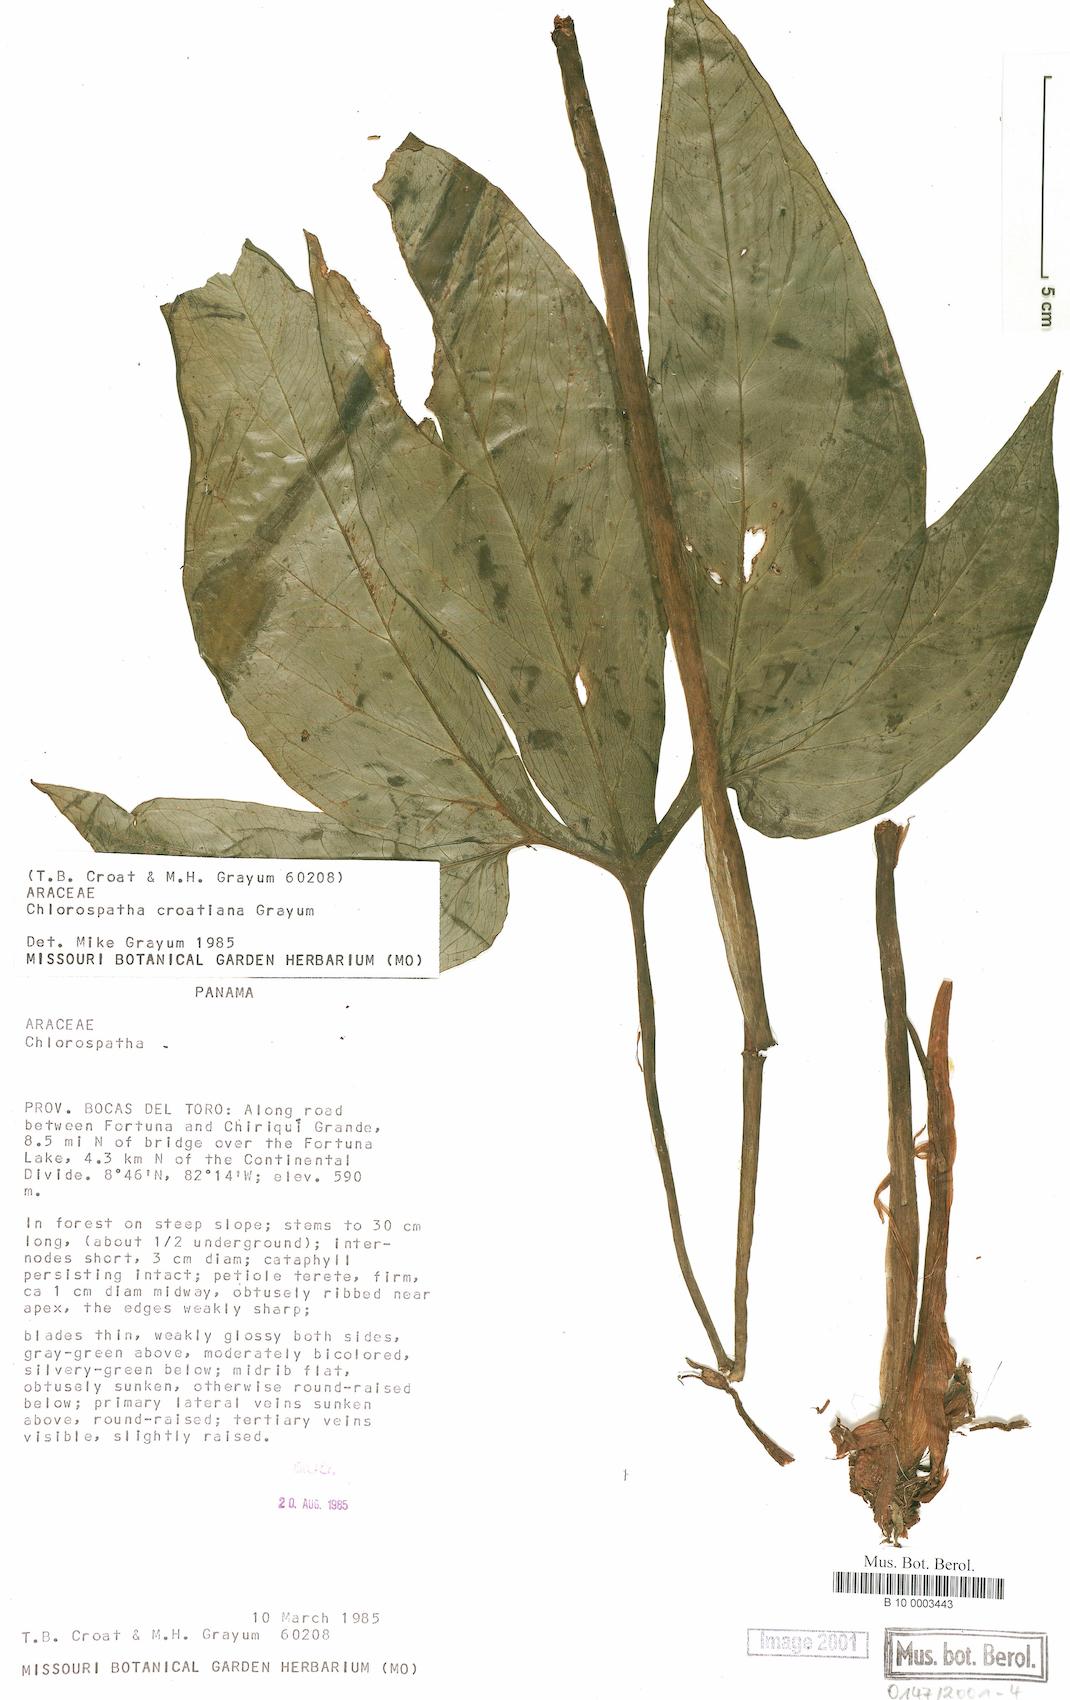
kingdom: Plantae
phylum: Tracheophyta
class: Liliopsida
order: Alismatales
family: Araceae
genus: Chlorospatha
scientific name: Chlorospatha croatiana
